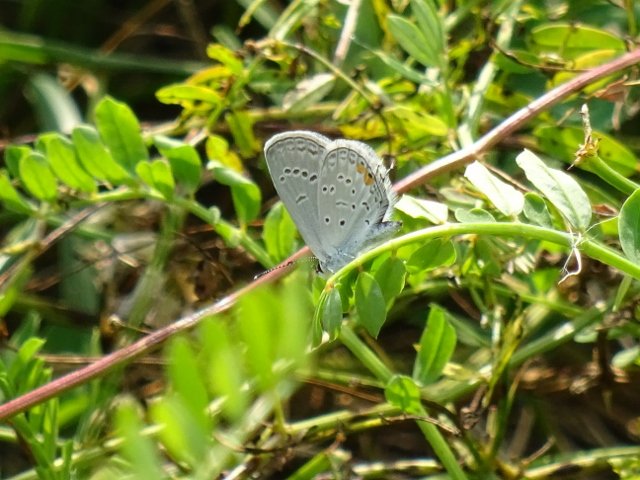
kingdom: Animalia
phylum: Arthropoda
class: Insecta
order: Lepidoptera
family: Lycaenidae
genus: Elkalyce
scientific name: Elkalyce comyntas
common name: Eastern Tailed-Blue
